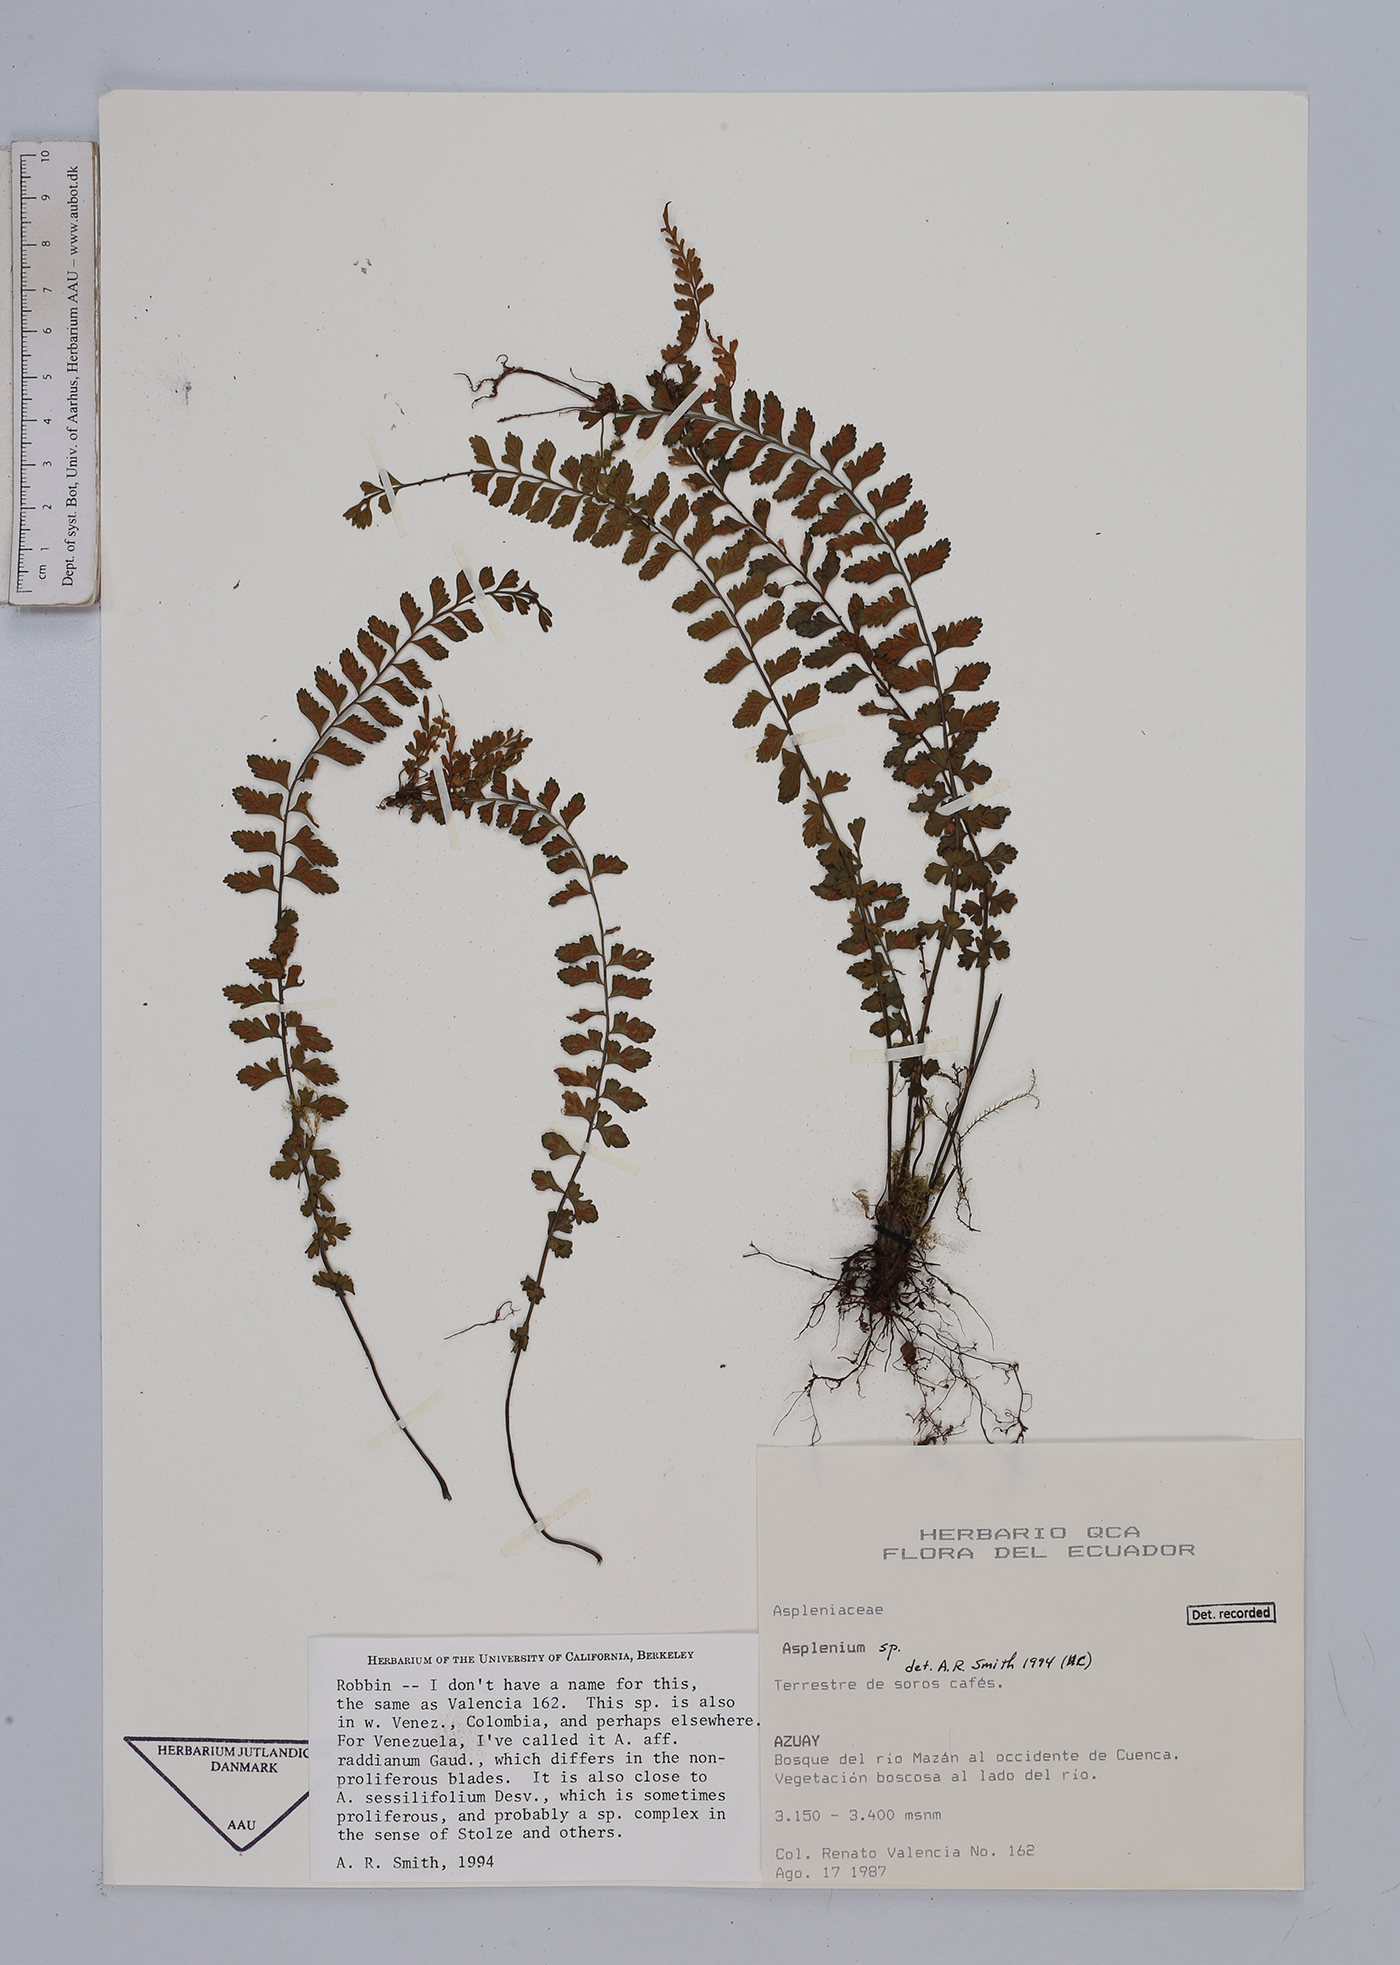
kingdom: Plantae
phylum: Tracheophyta
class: Polypodiopsida
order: Polypodiales
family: Aspleniaceae
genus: Asplenium
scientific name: Asplenium
